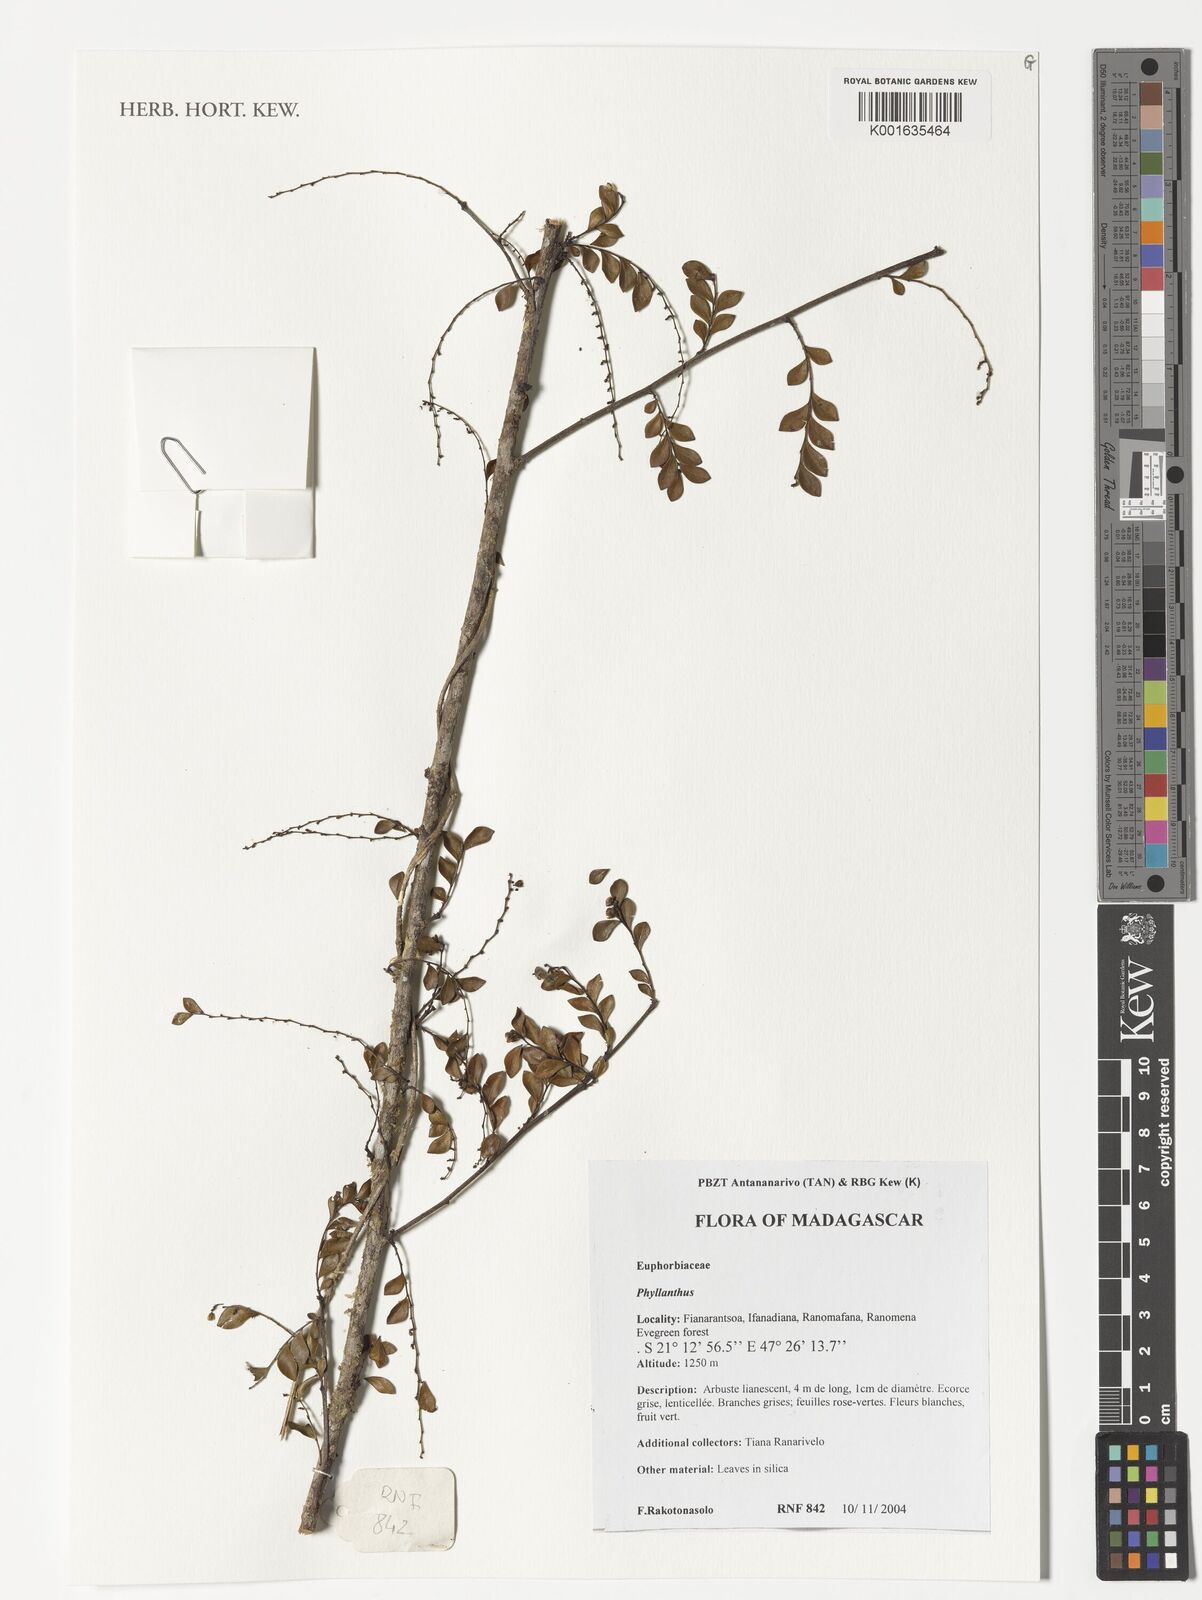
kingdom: Plantae
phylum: Tracheophyta
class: Magnoliopsida
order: Malpighiales
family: Phyllanthaceae
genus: Phyllanthus
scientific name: Phyllanthus
